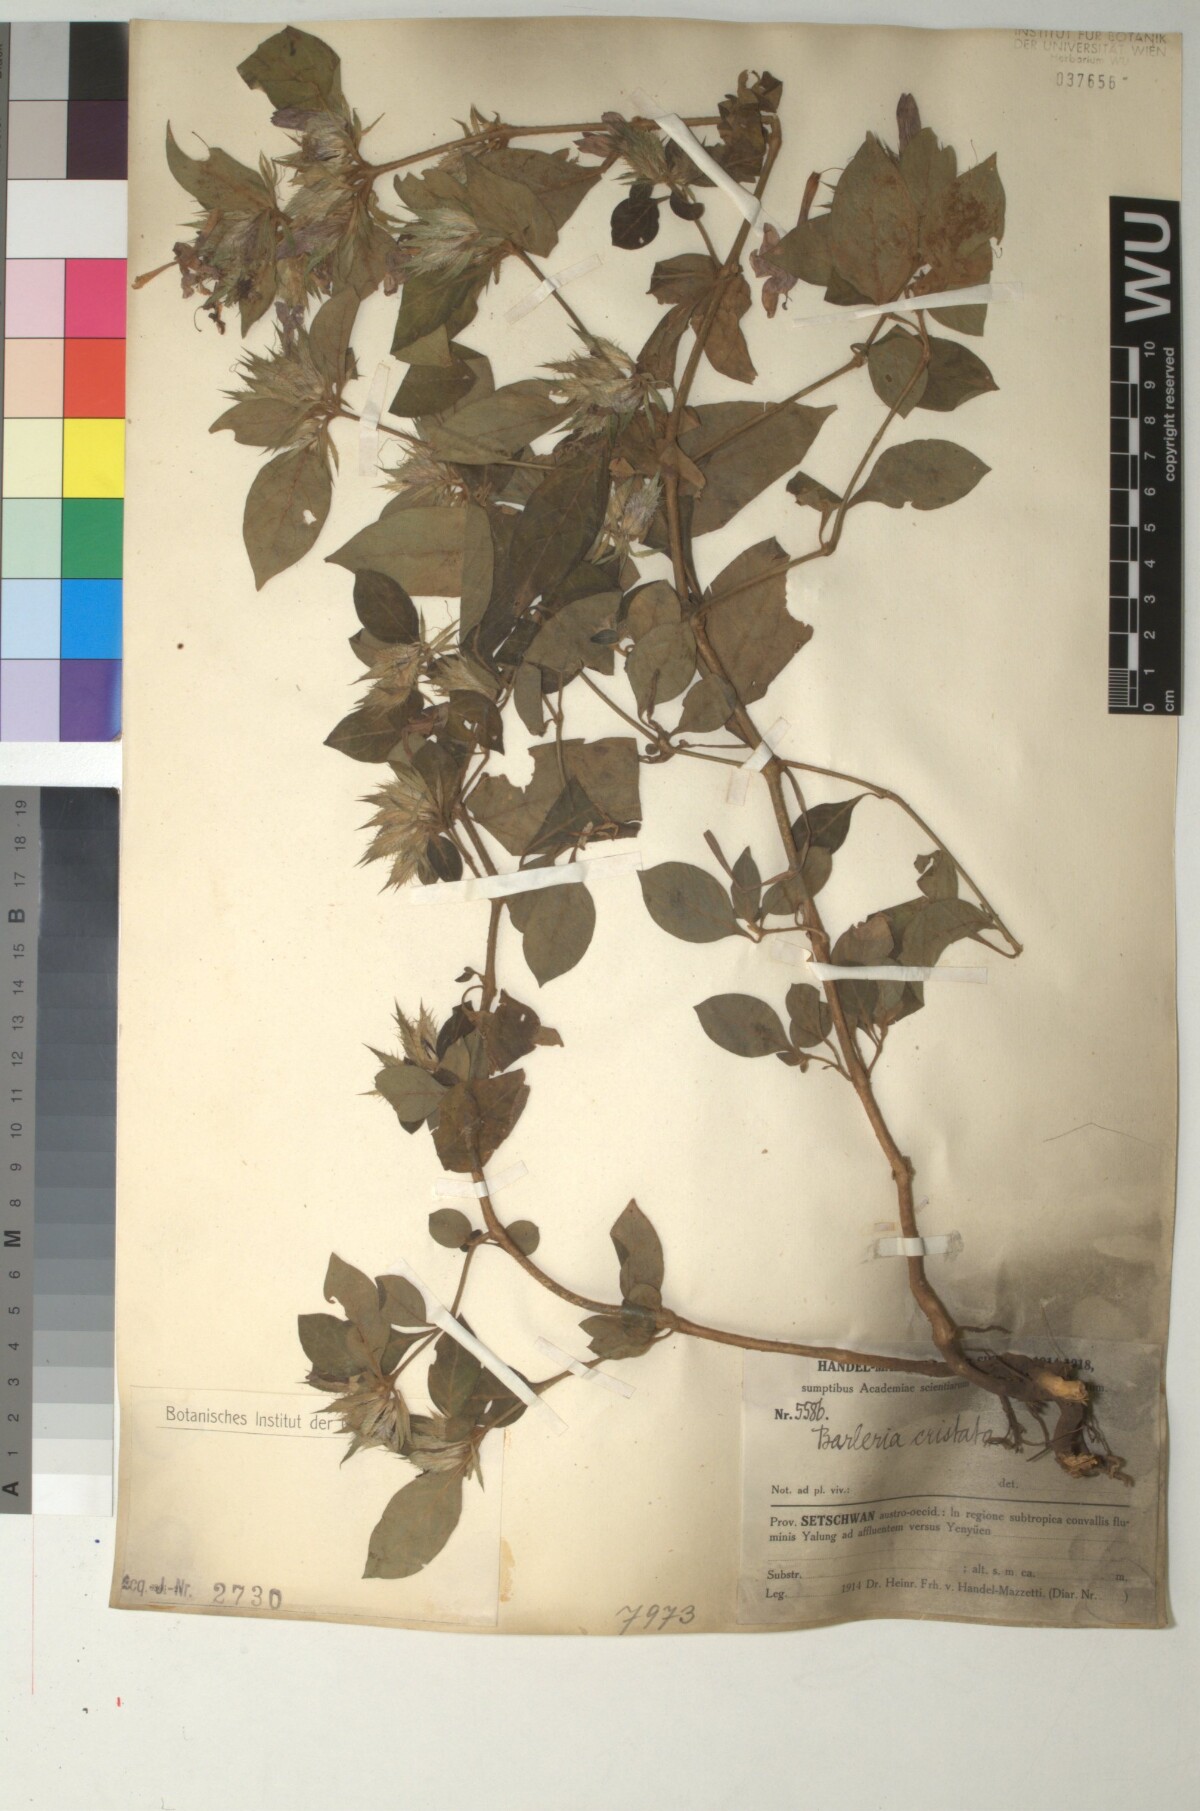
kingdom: Plantae
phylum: Tracheophyta
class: Magnoliopsida
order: Lamiales
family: Acanthaceae
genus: Barleria
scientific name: Barleria cristata
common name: Crested philippine violet
